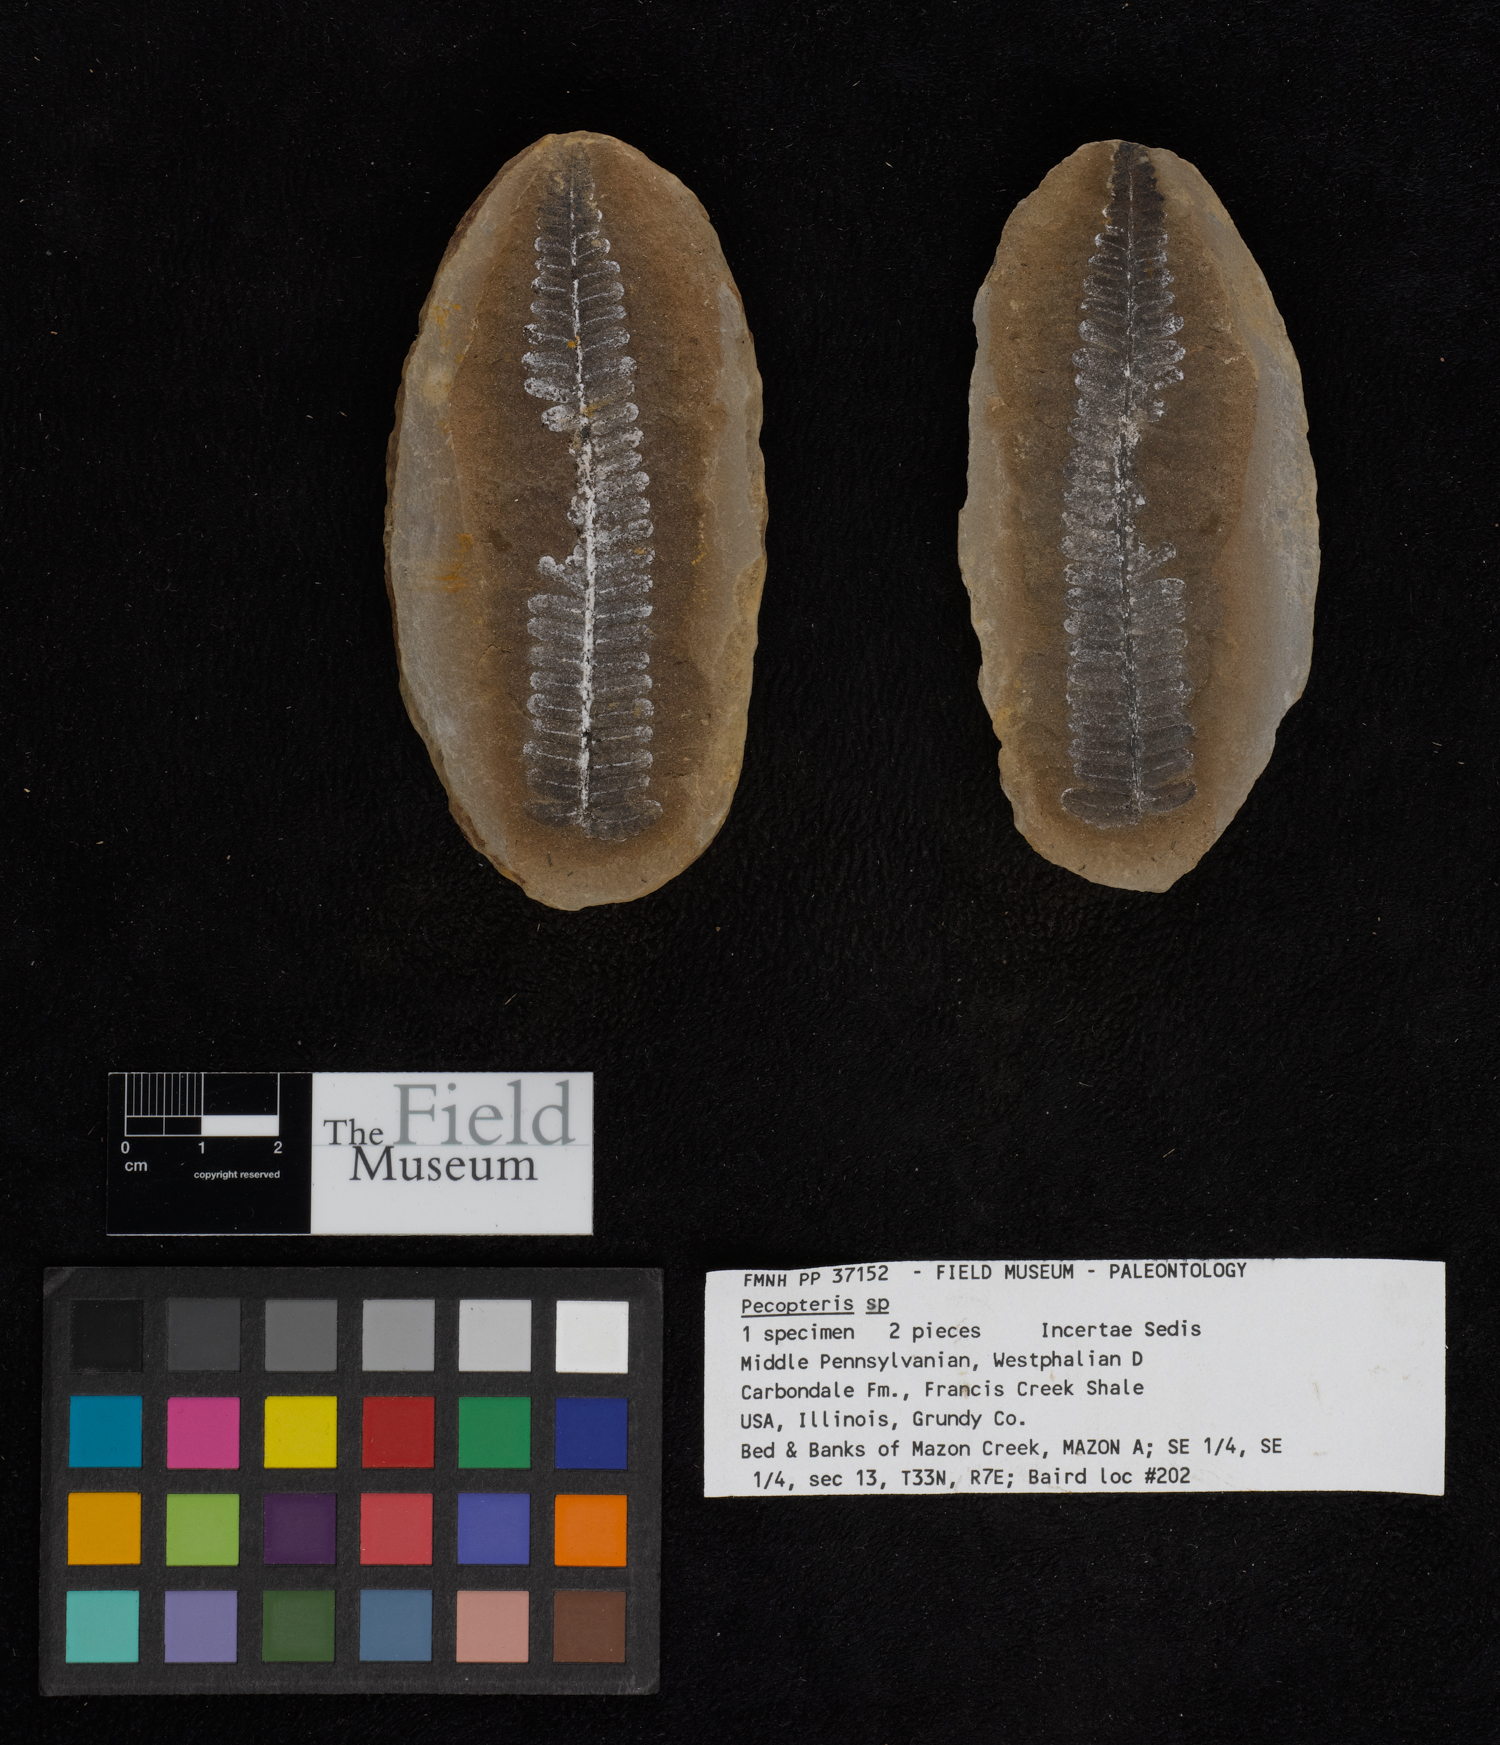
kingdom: Plantae
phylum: Tracheophyta
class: Polypodiopsida
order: Marattiales
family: Asterothecaceae
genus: Pecopteris
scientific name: Pecopteris
